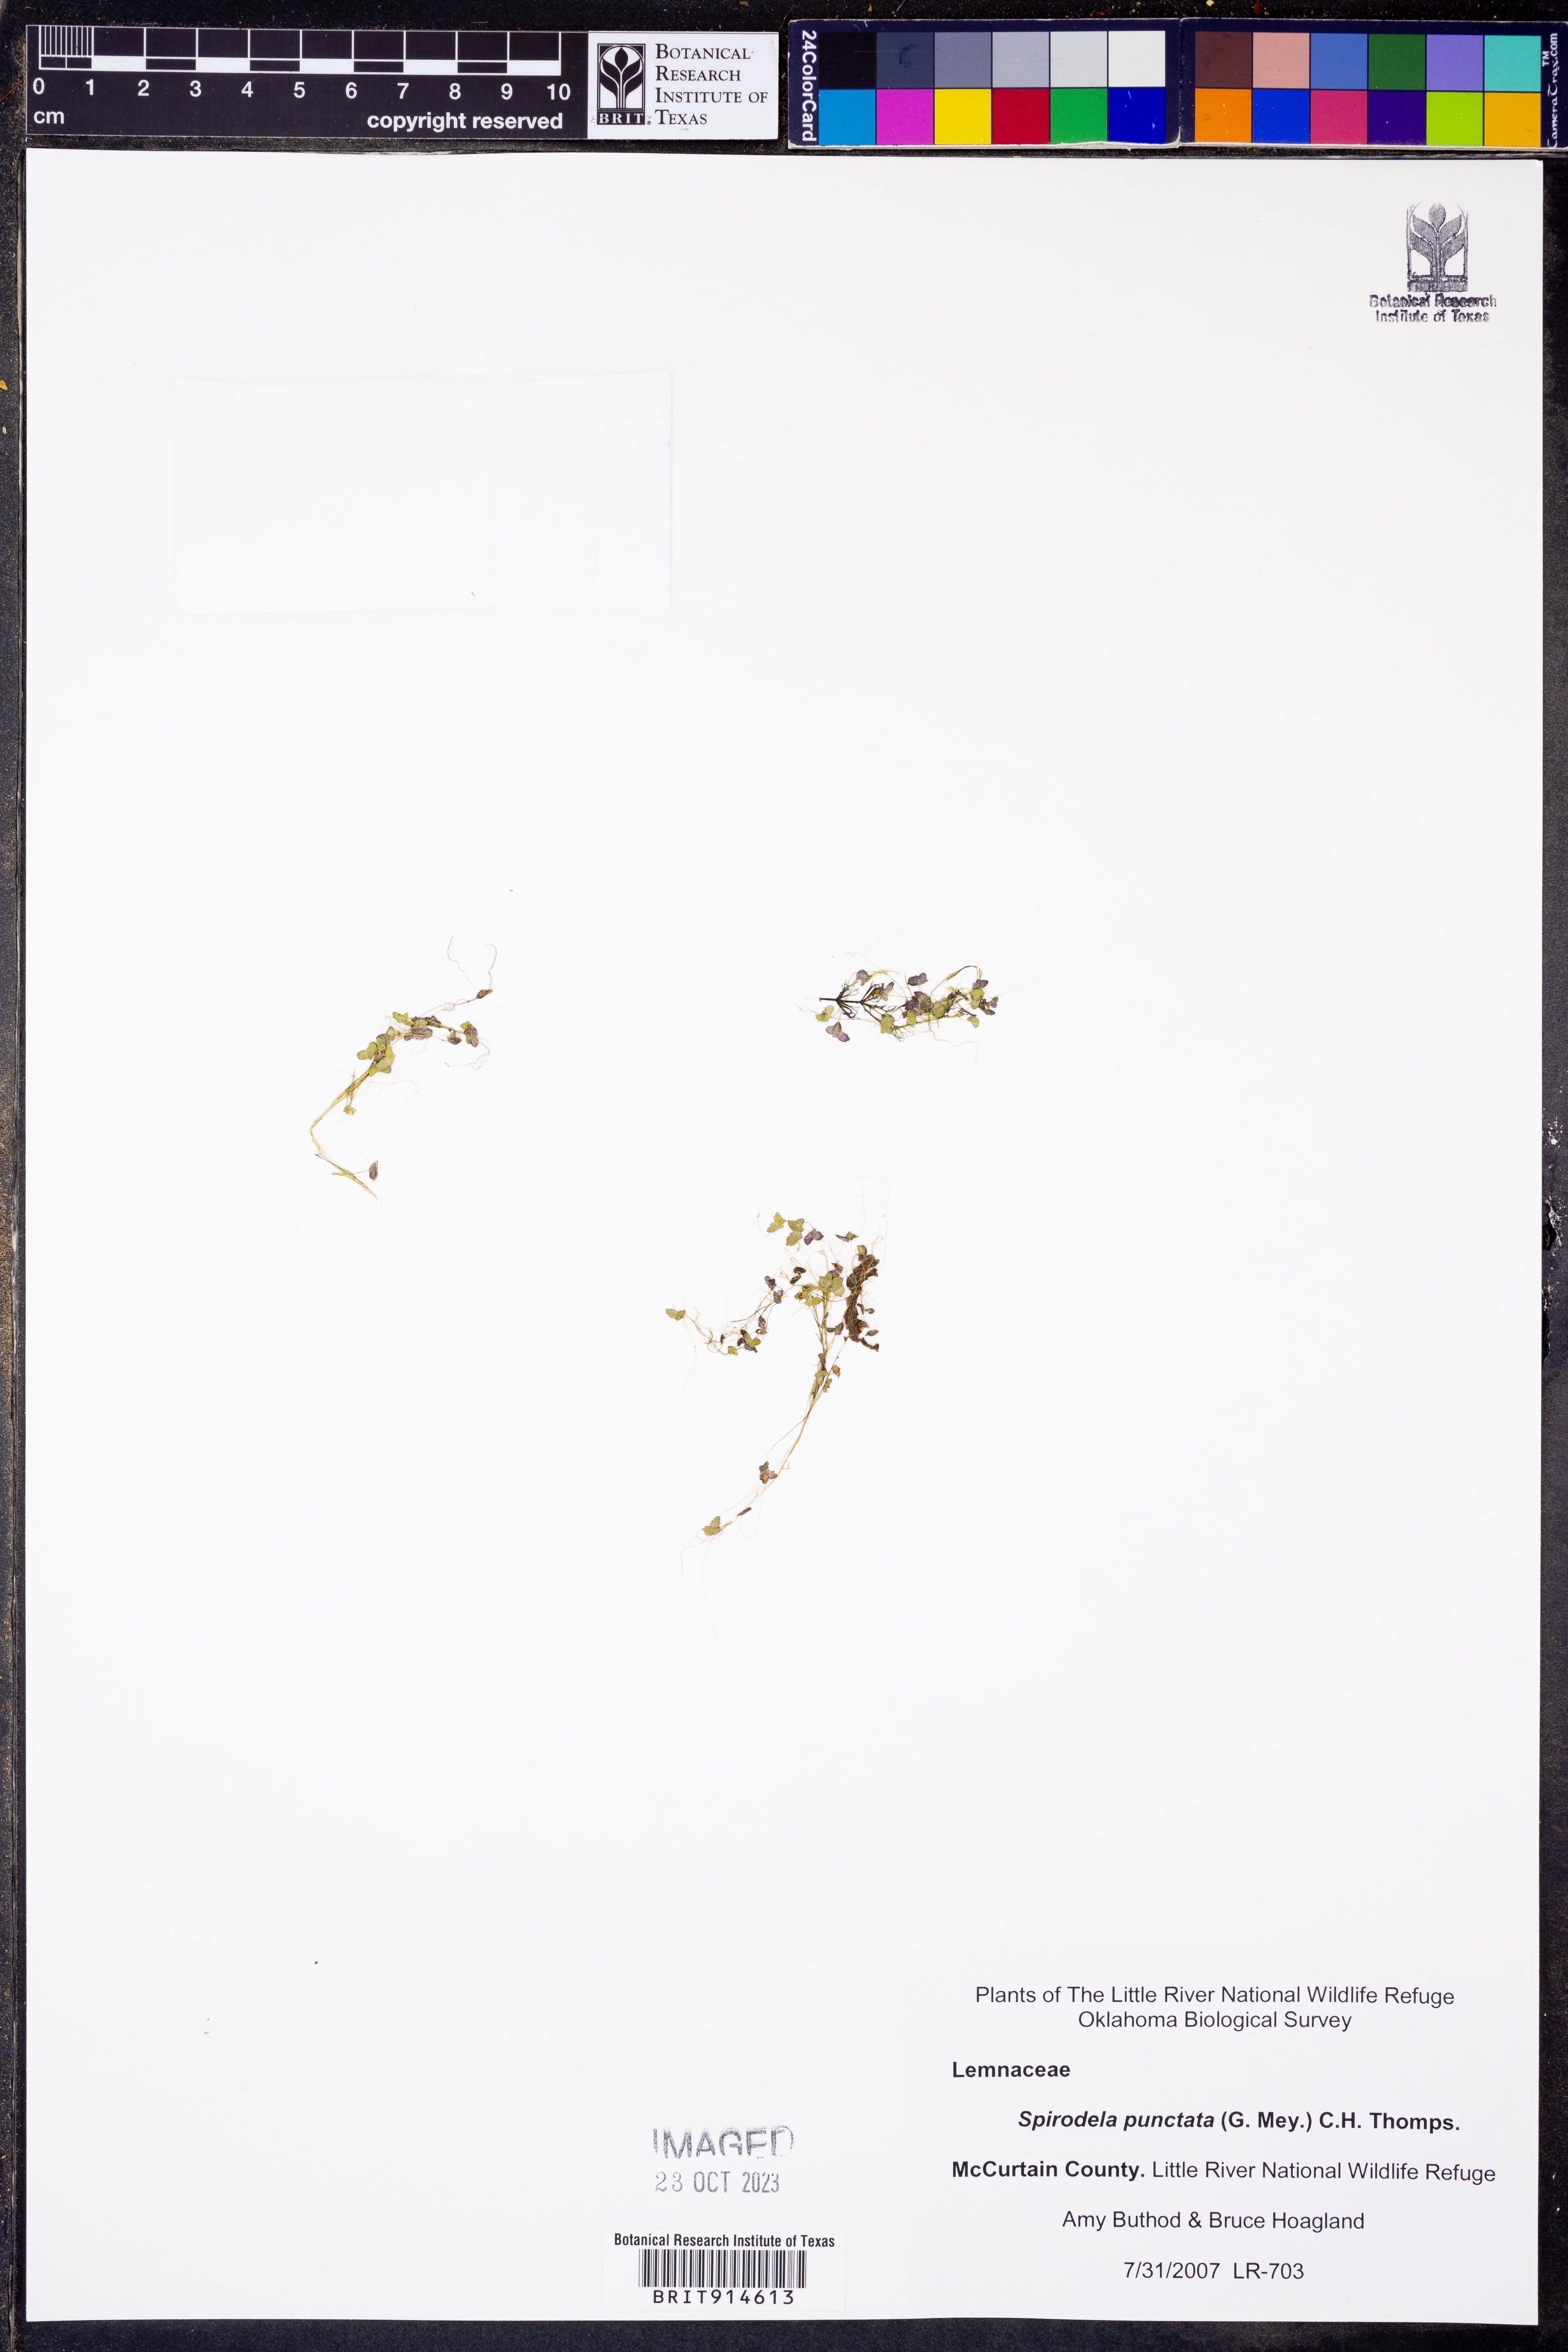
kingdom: Plantae
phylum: Tracheophyta
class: Liliopsida
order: Alismatales
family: Araceae
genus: Spirodela
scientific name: Spirodela punctata
